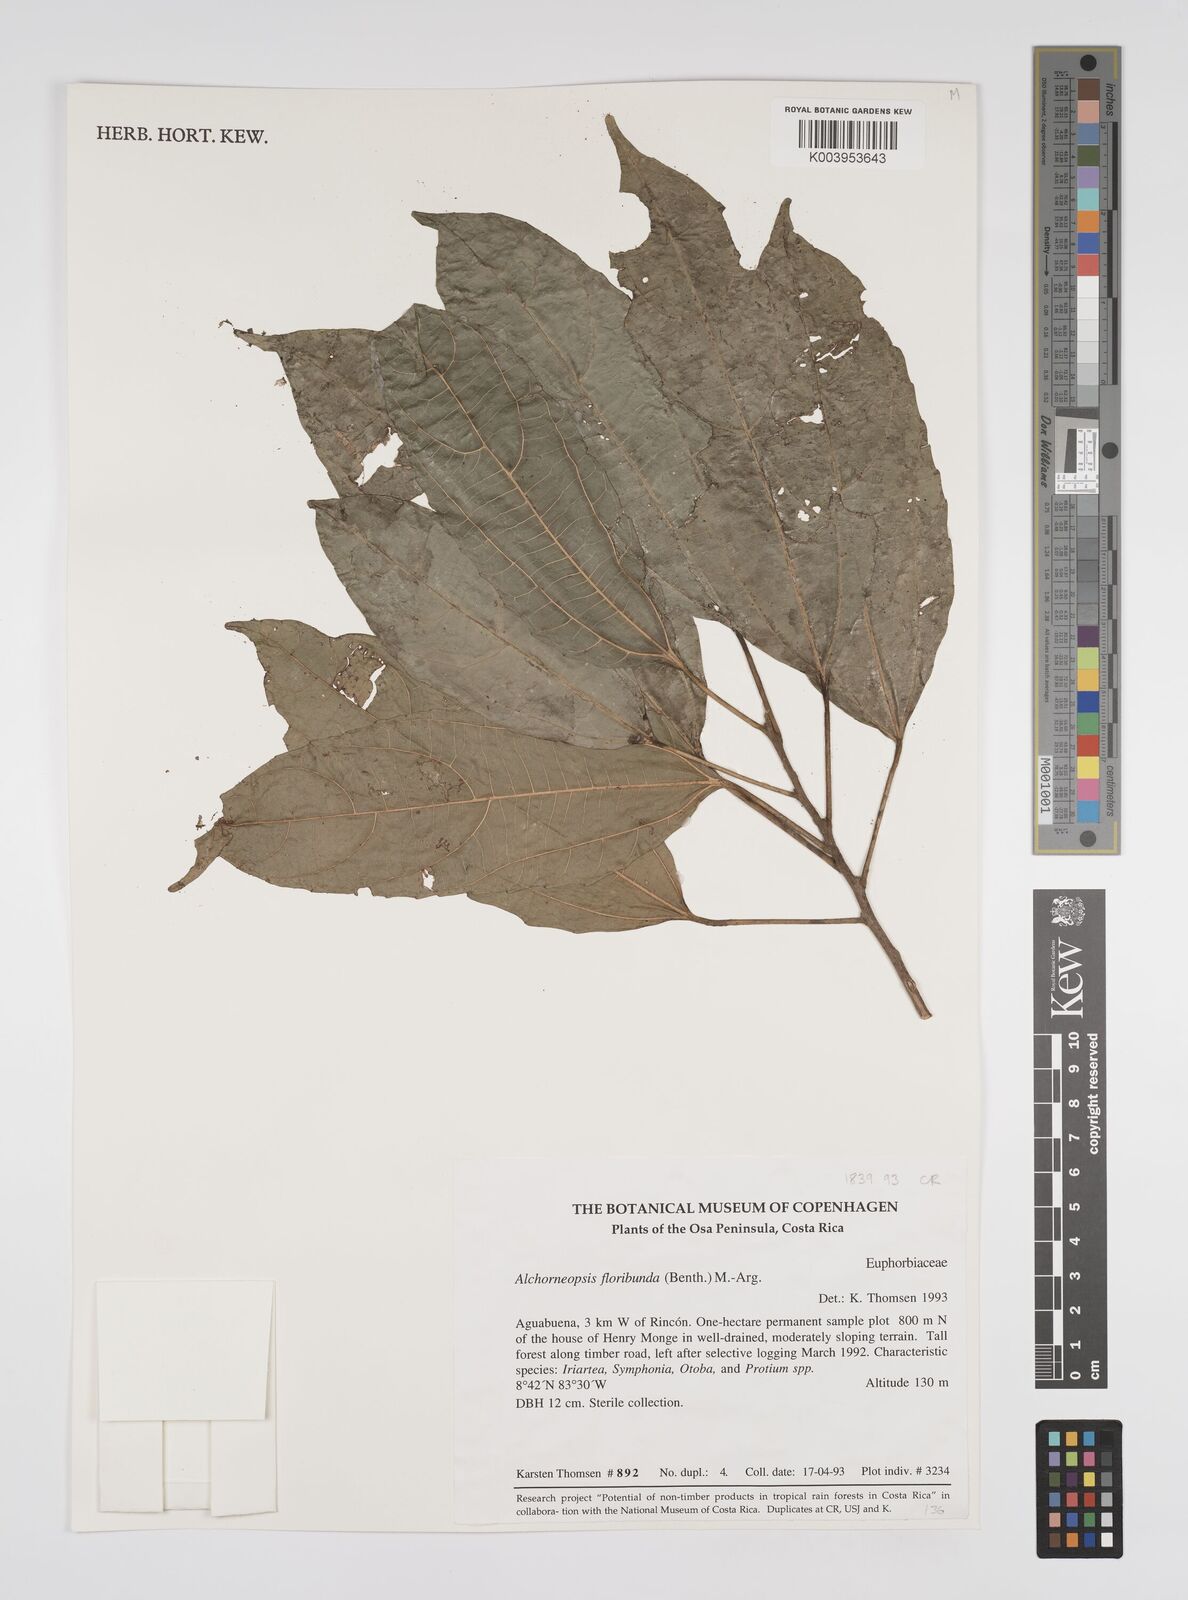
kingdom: Plantae
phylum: Tracheophyta
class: Magnoliopsida
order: Malpighiales
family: Euphorbiaceae
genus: Alchorneopsis
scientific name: Alchorneopsis floribunda
